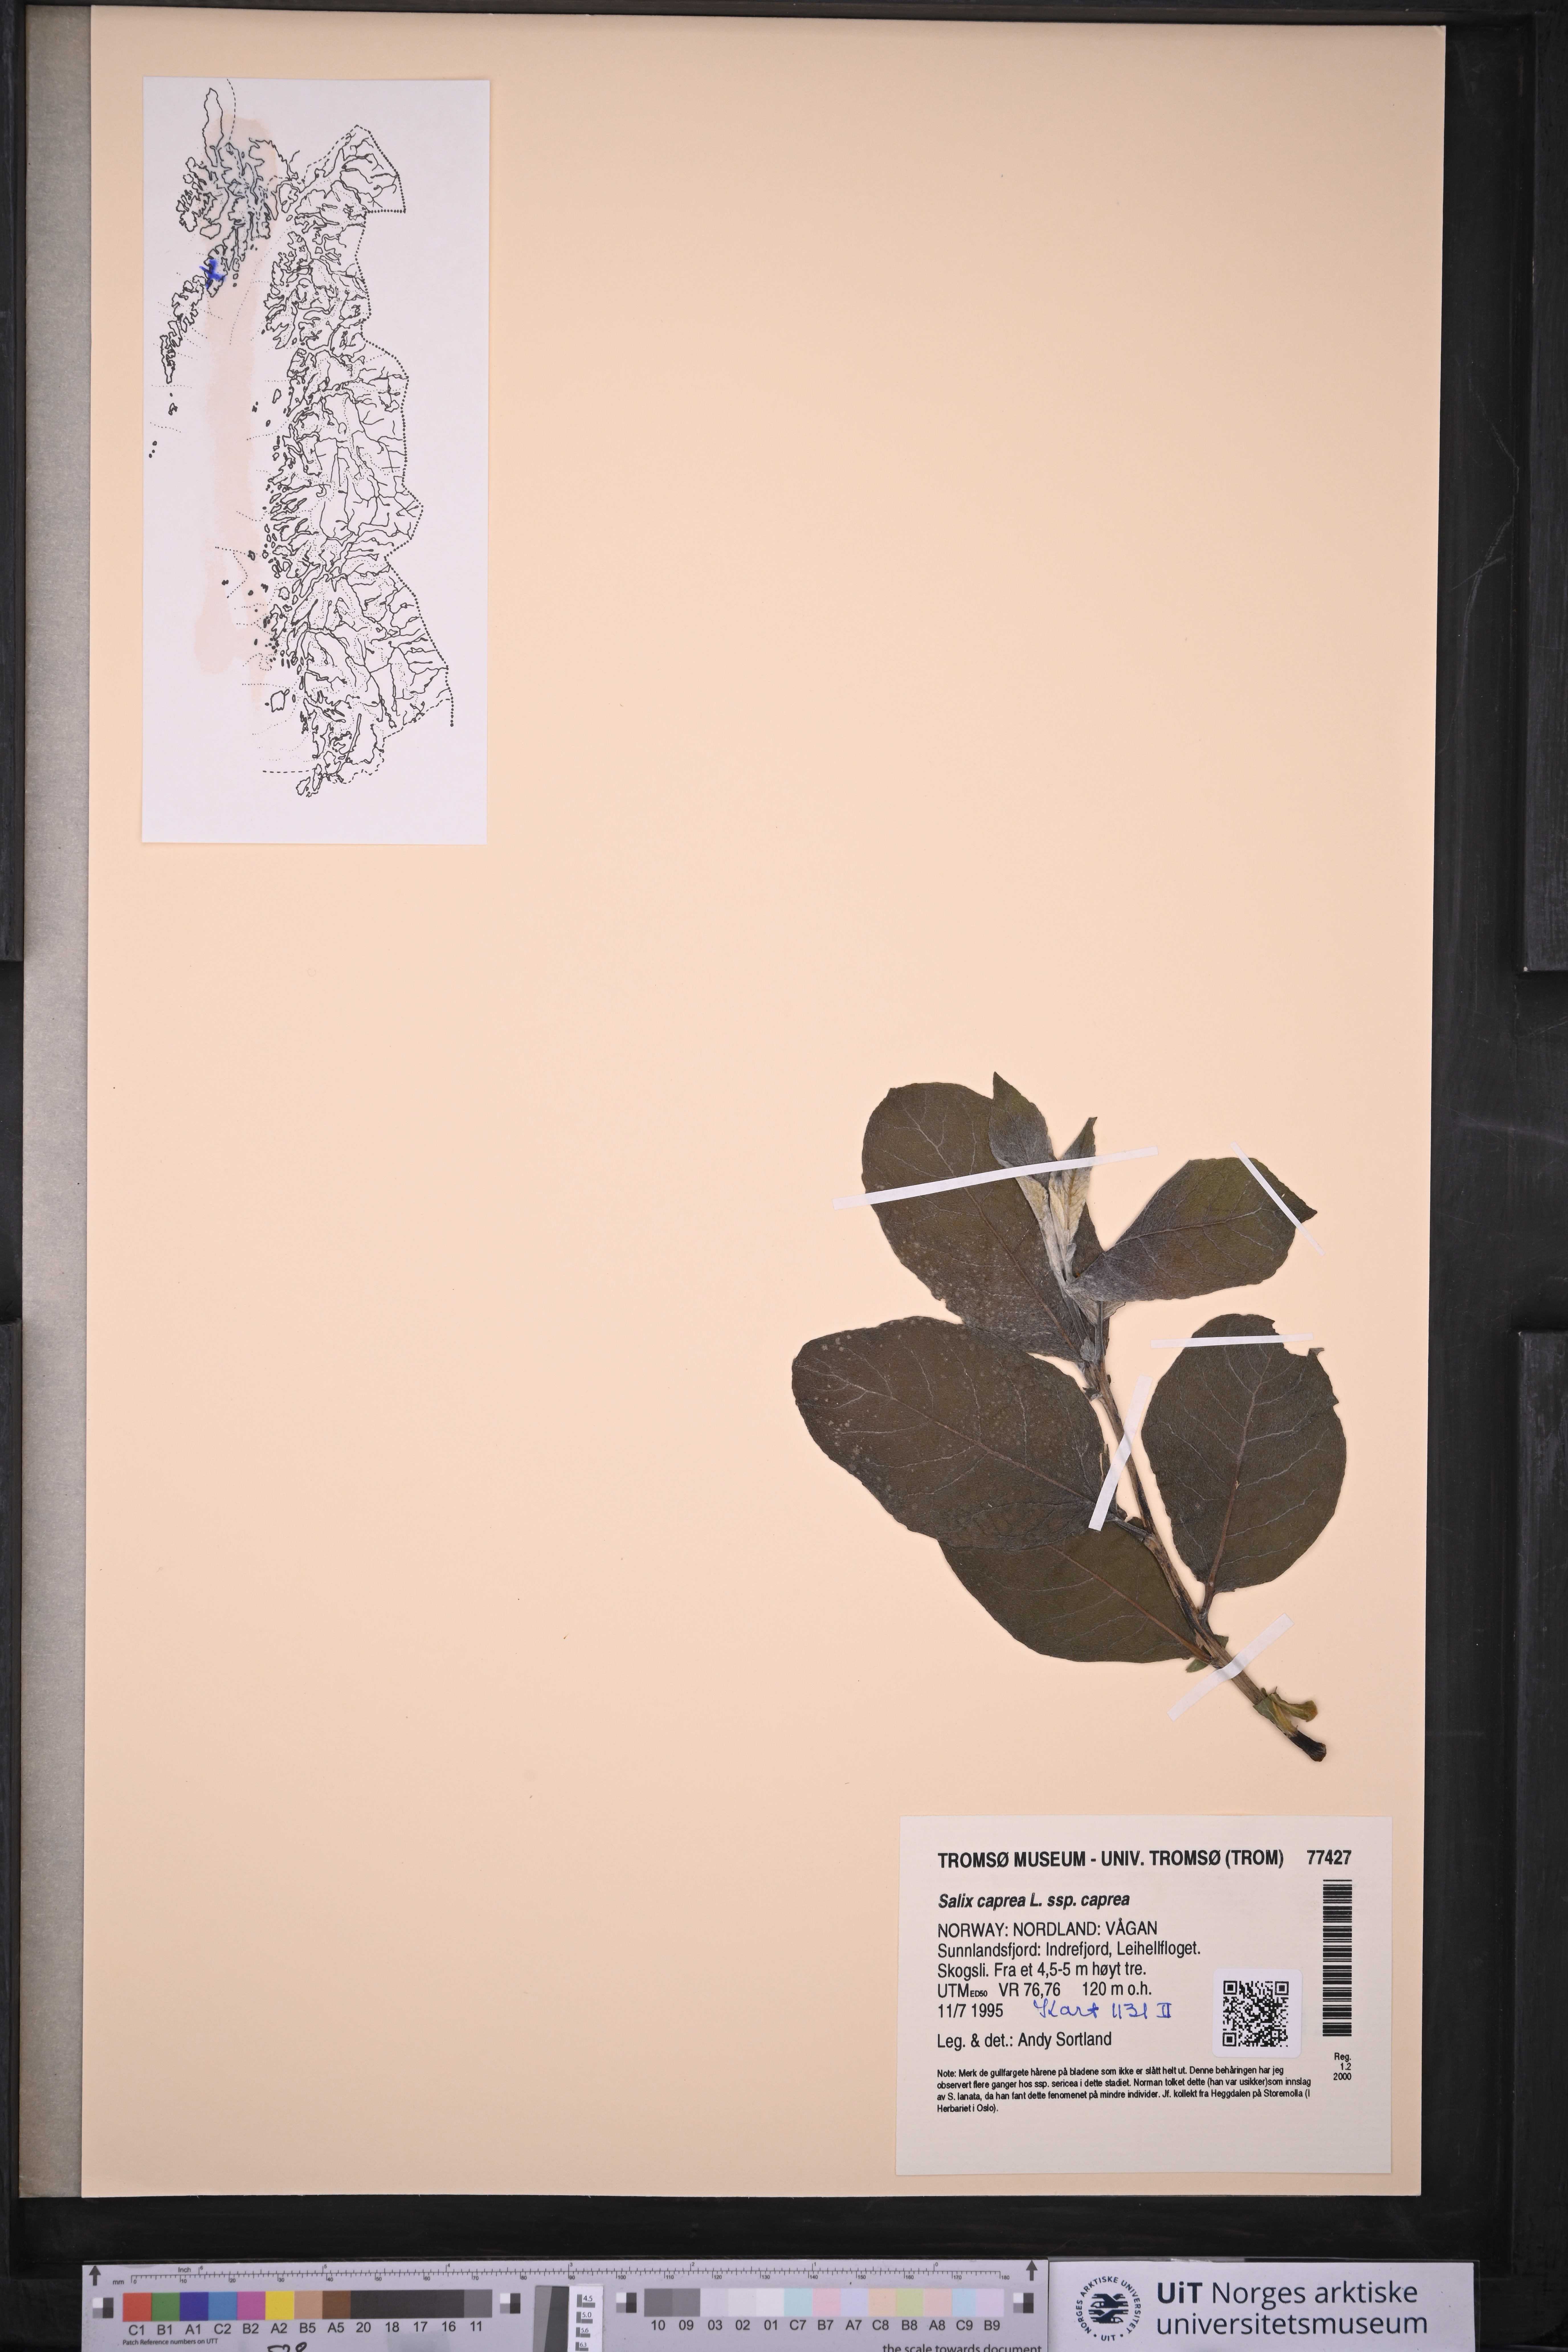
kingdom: Plantae
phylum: Tracheophyta
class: Magnoliopsida
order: Malpighiales
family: Salicaceae
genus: Salix
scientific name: Salix caprea
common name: Goat willow
